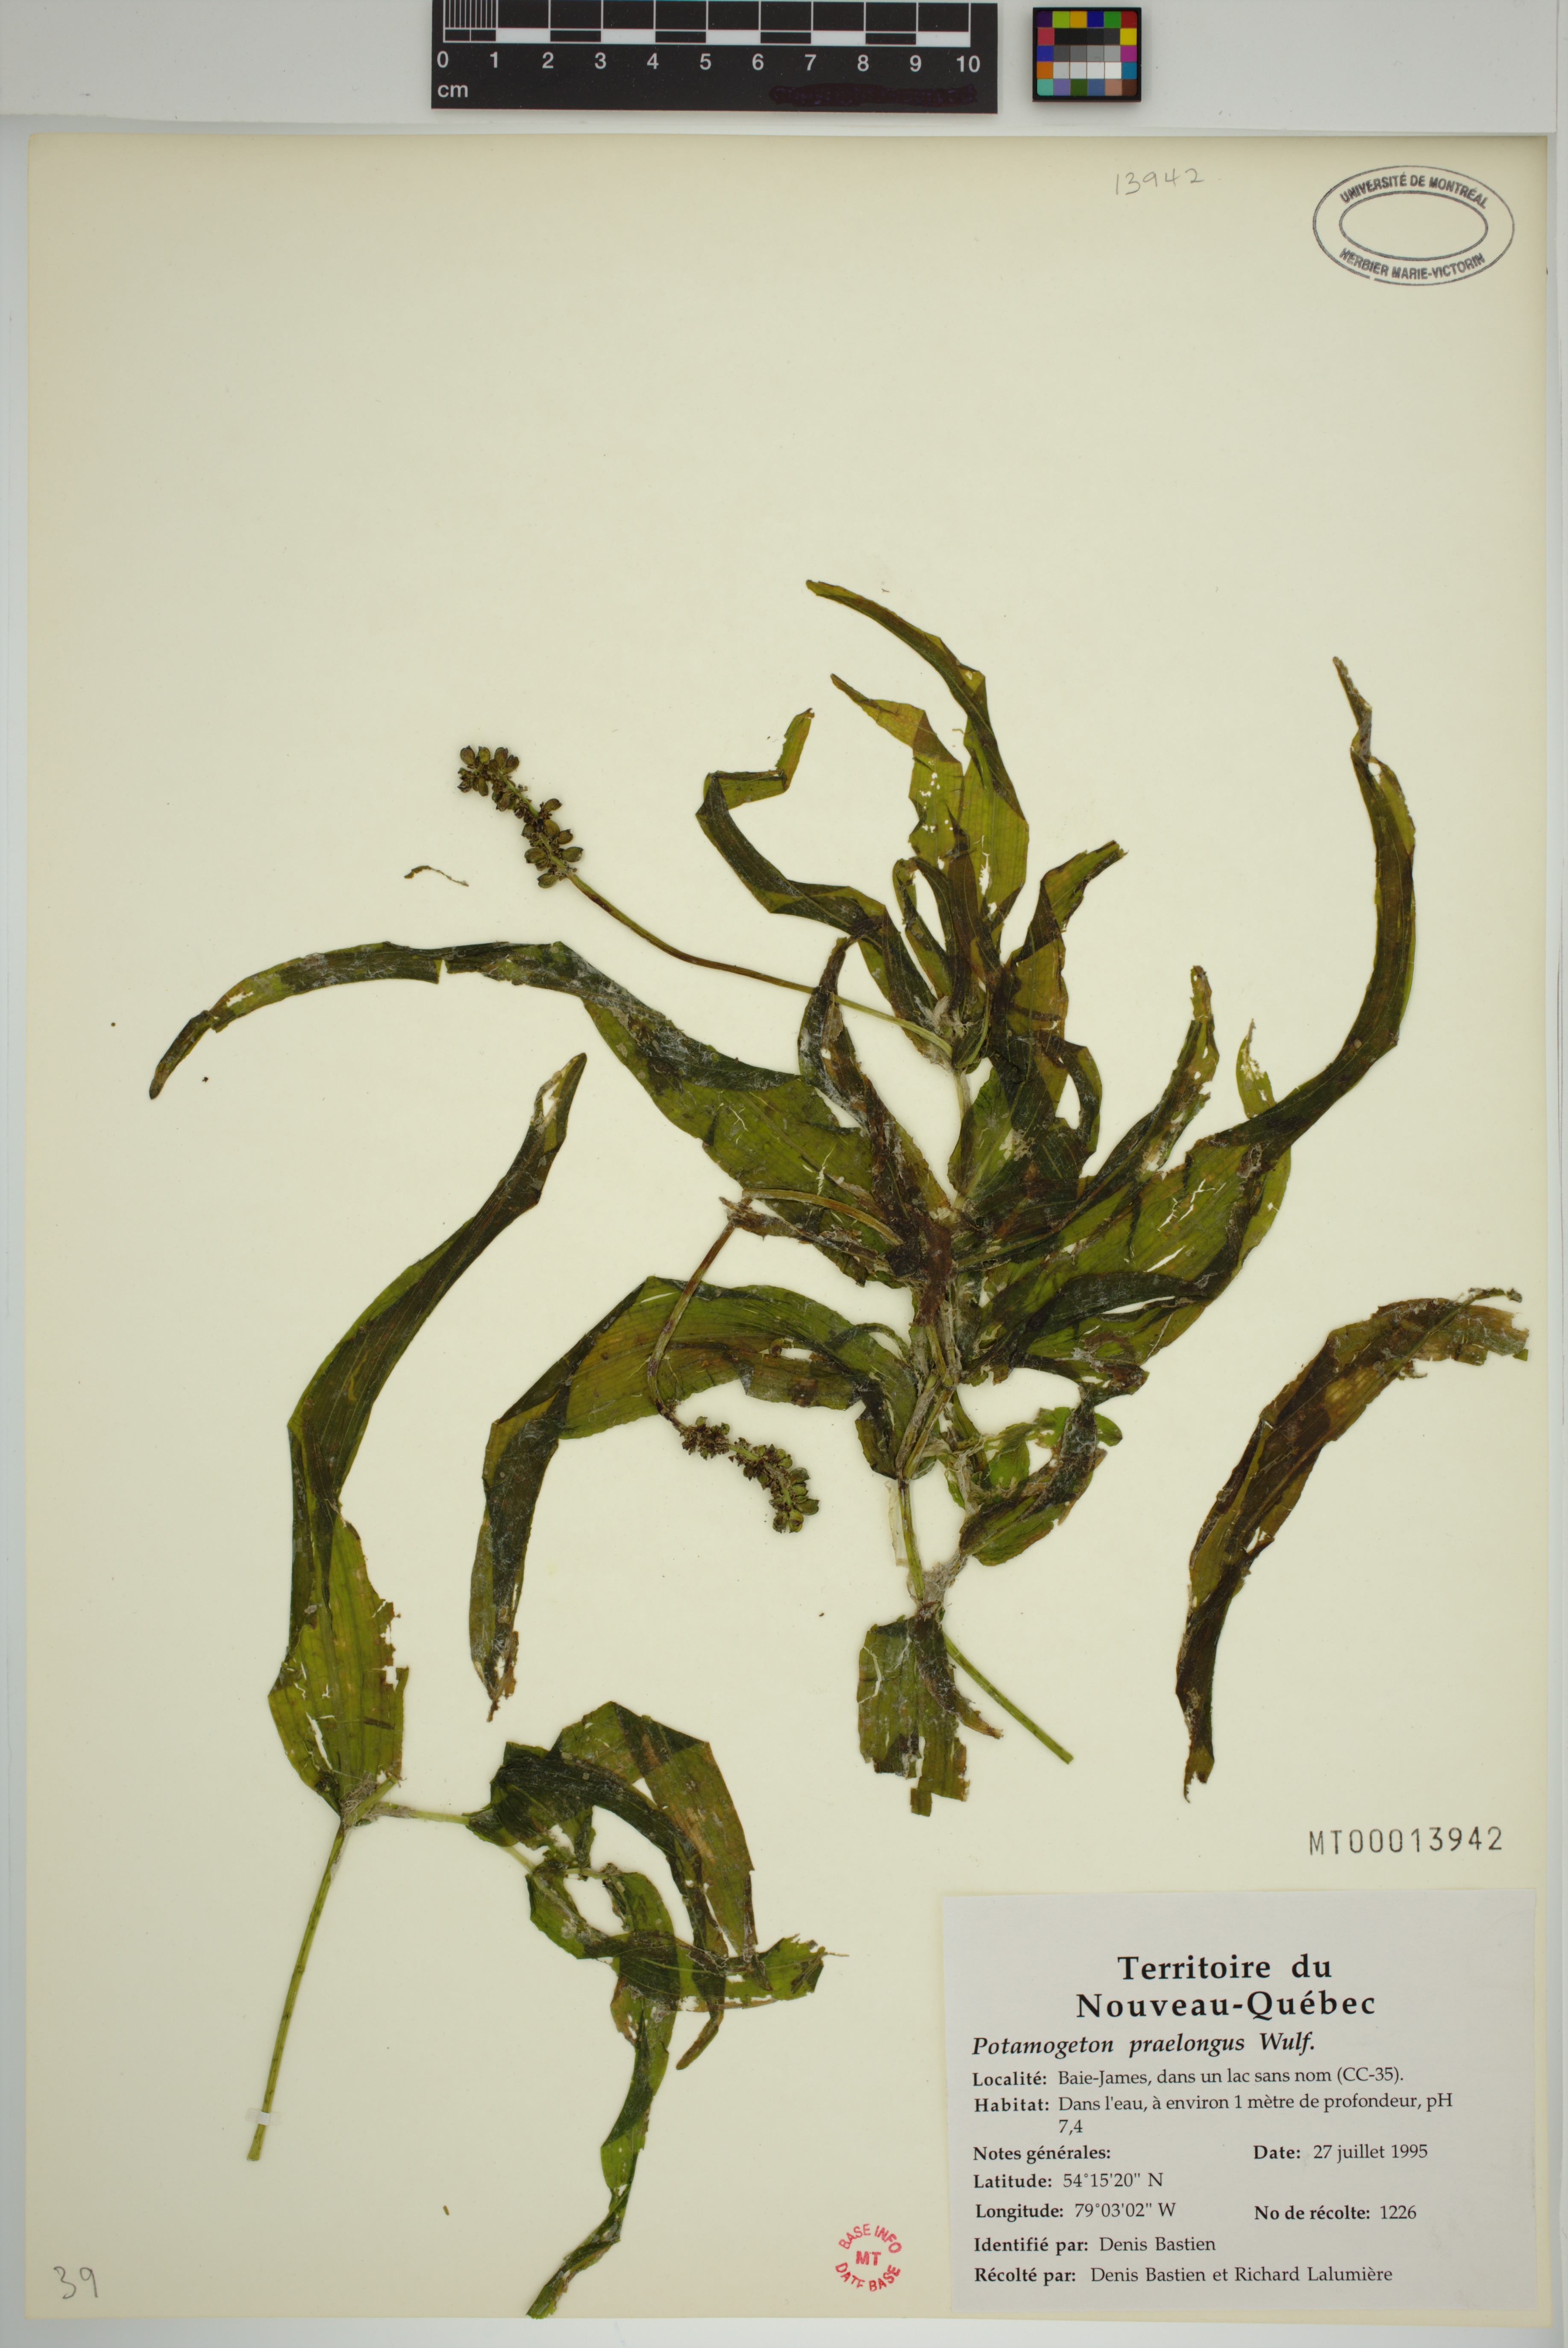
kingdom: Plantae
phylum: Tracheophyta
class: Liliopsida
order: Alismatales
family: Potamogetonaceae
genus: Potamogeton
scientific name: Potamogeton praelongus
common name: Long-stalked pondweed
